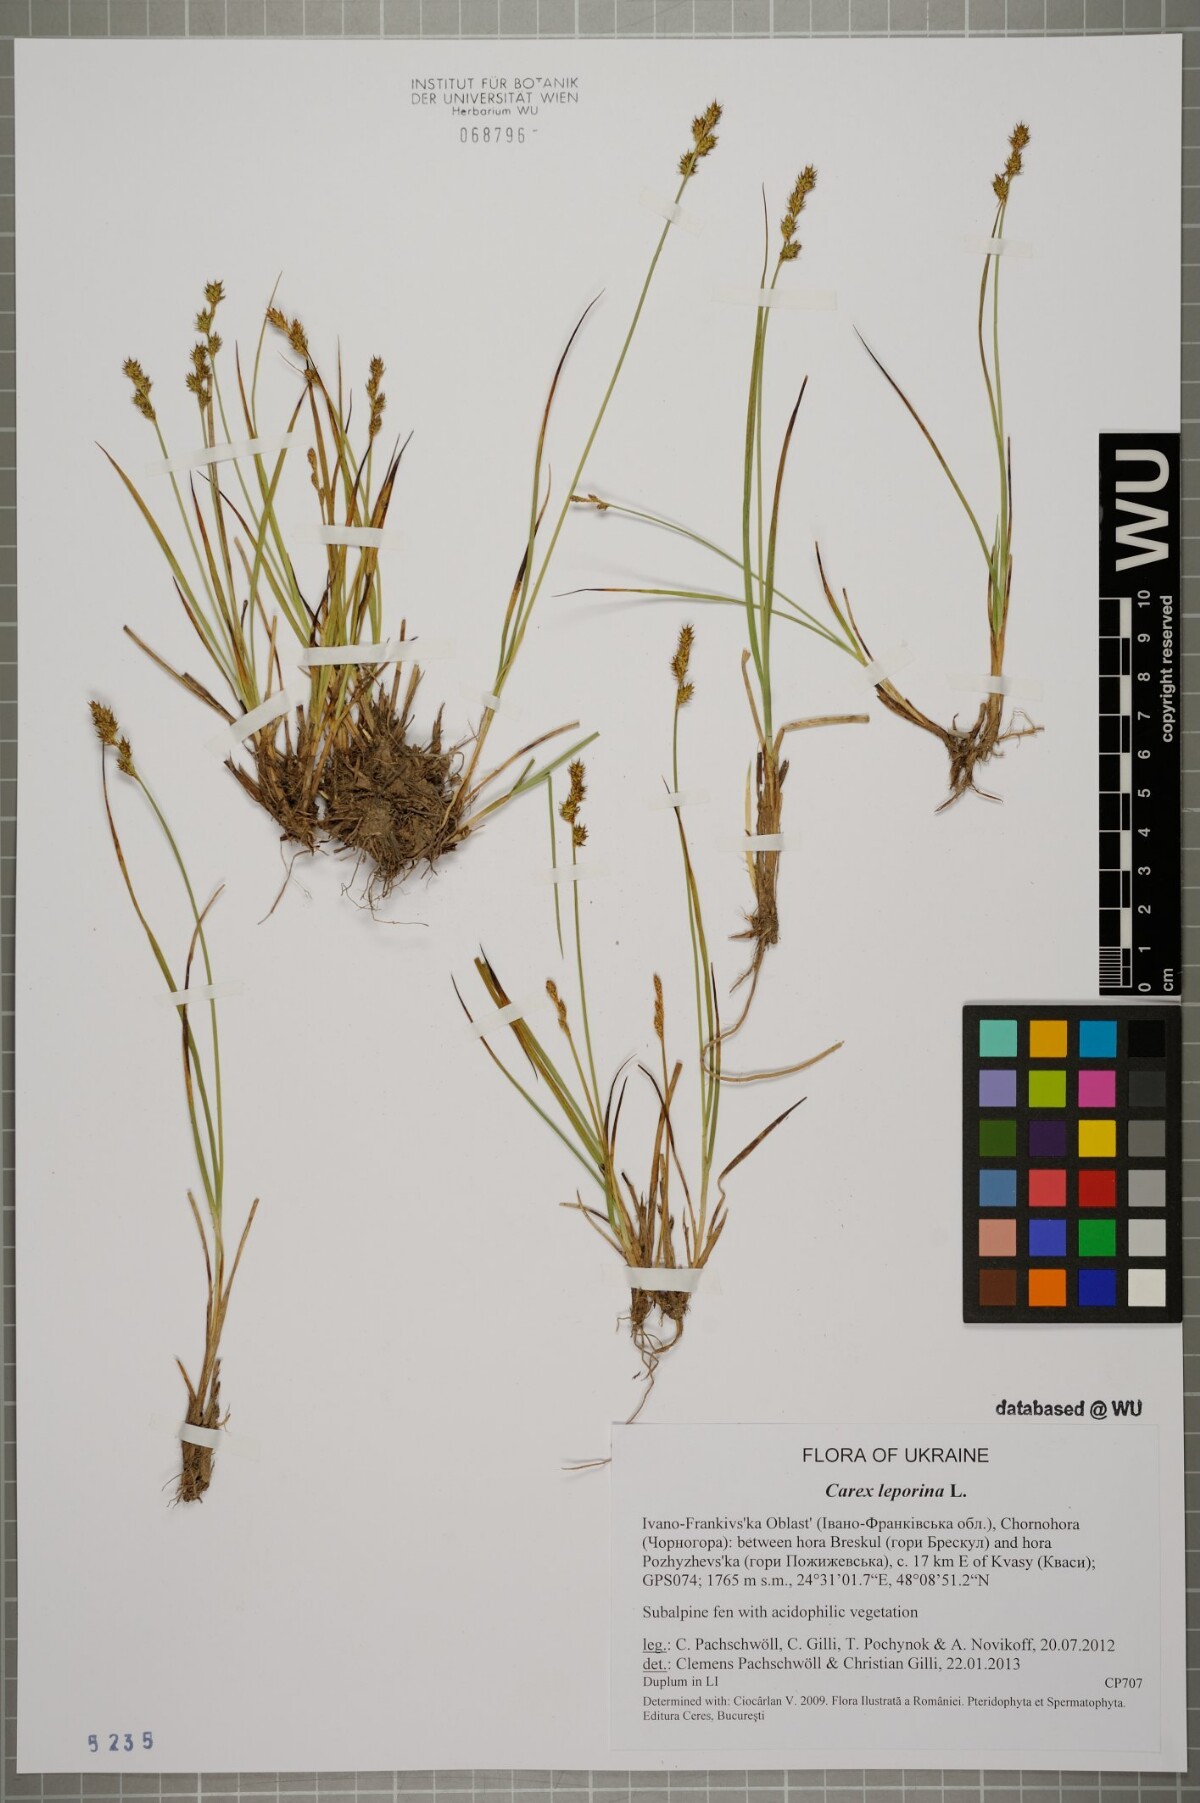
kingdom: Plantae
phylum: Tracheophyta
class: Liliopsida
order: Poales
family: Cyperaceae
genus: Carex
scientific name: Carex leporina
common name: Oval sedge
